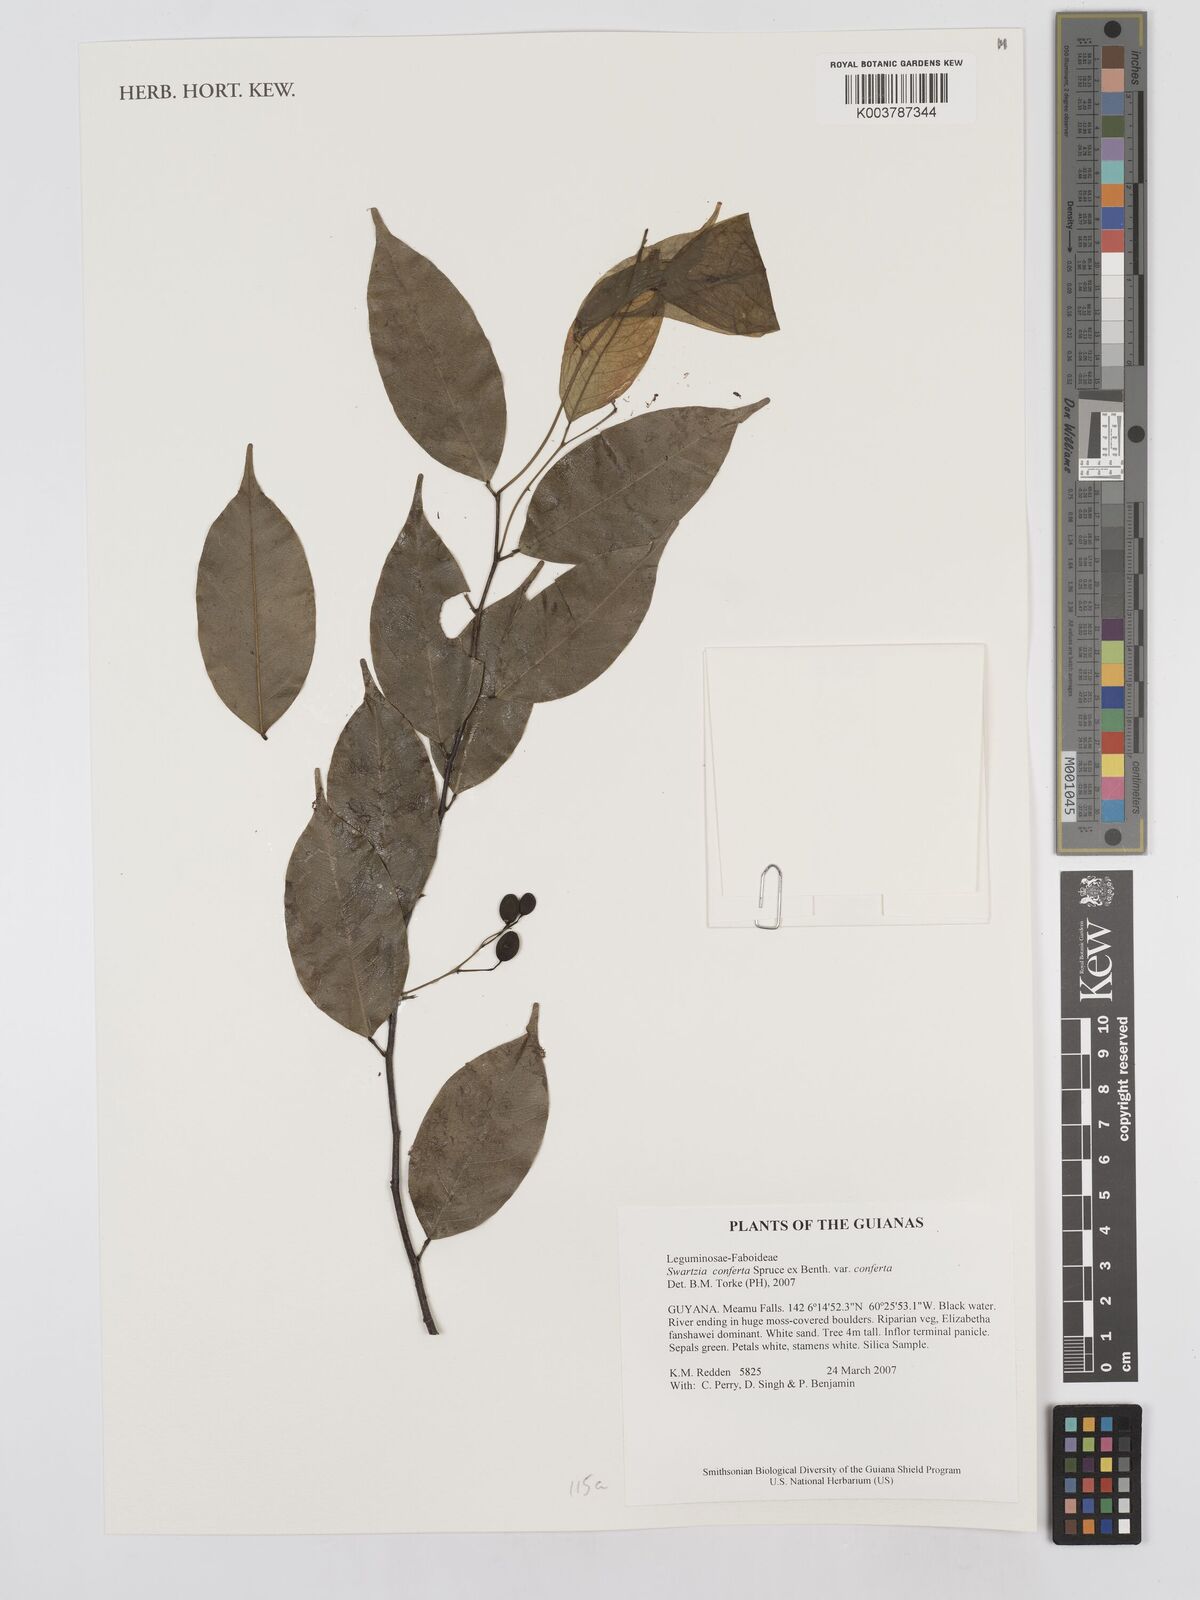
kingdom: Plantae
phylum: Tracheophyta
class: Magnoliopsida
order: Fabales
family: Fabaceae
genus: Swartzia
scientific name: Swartzia conferta
